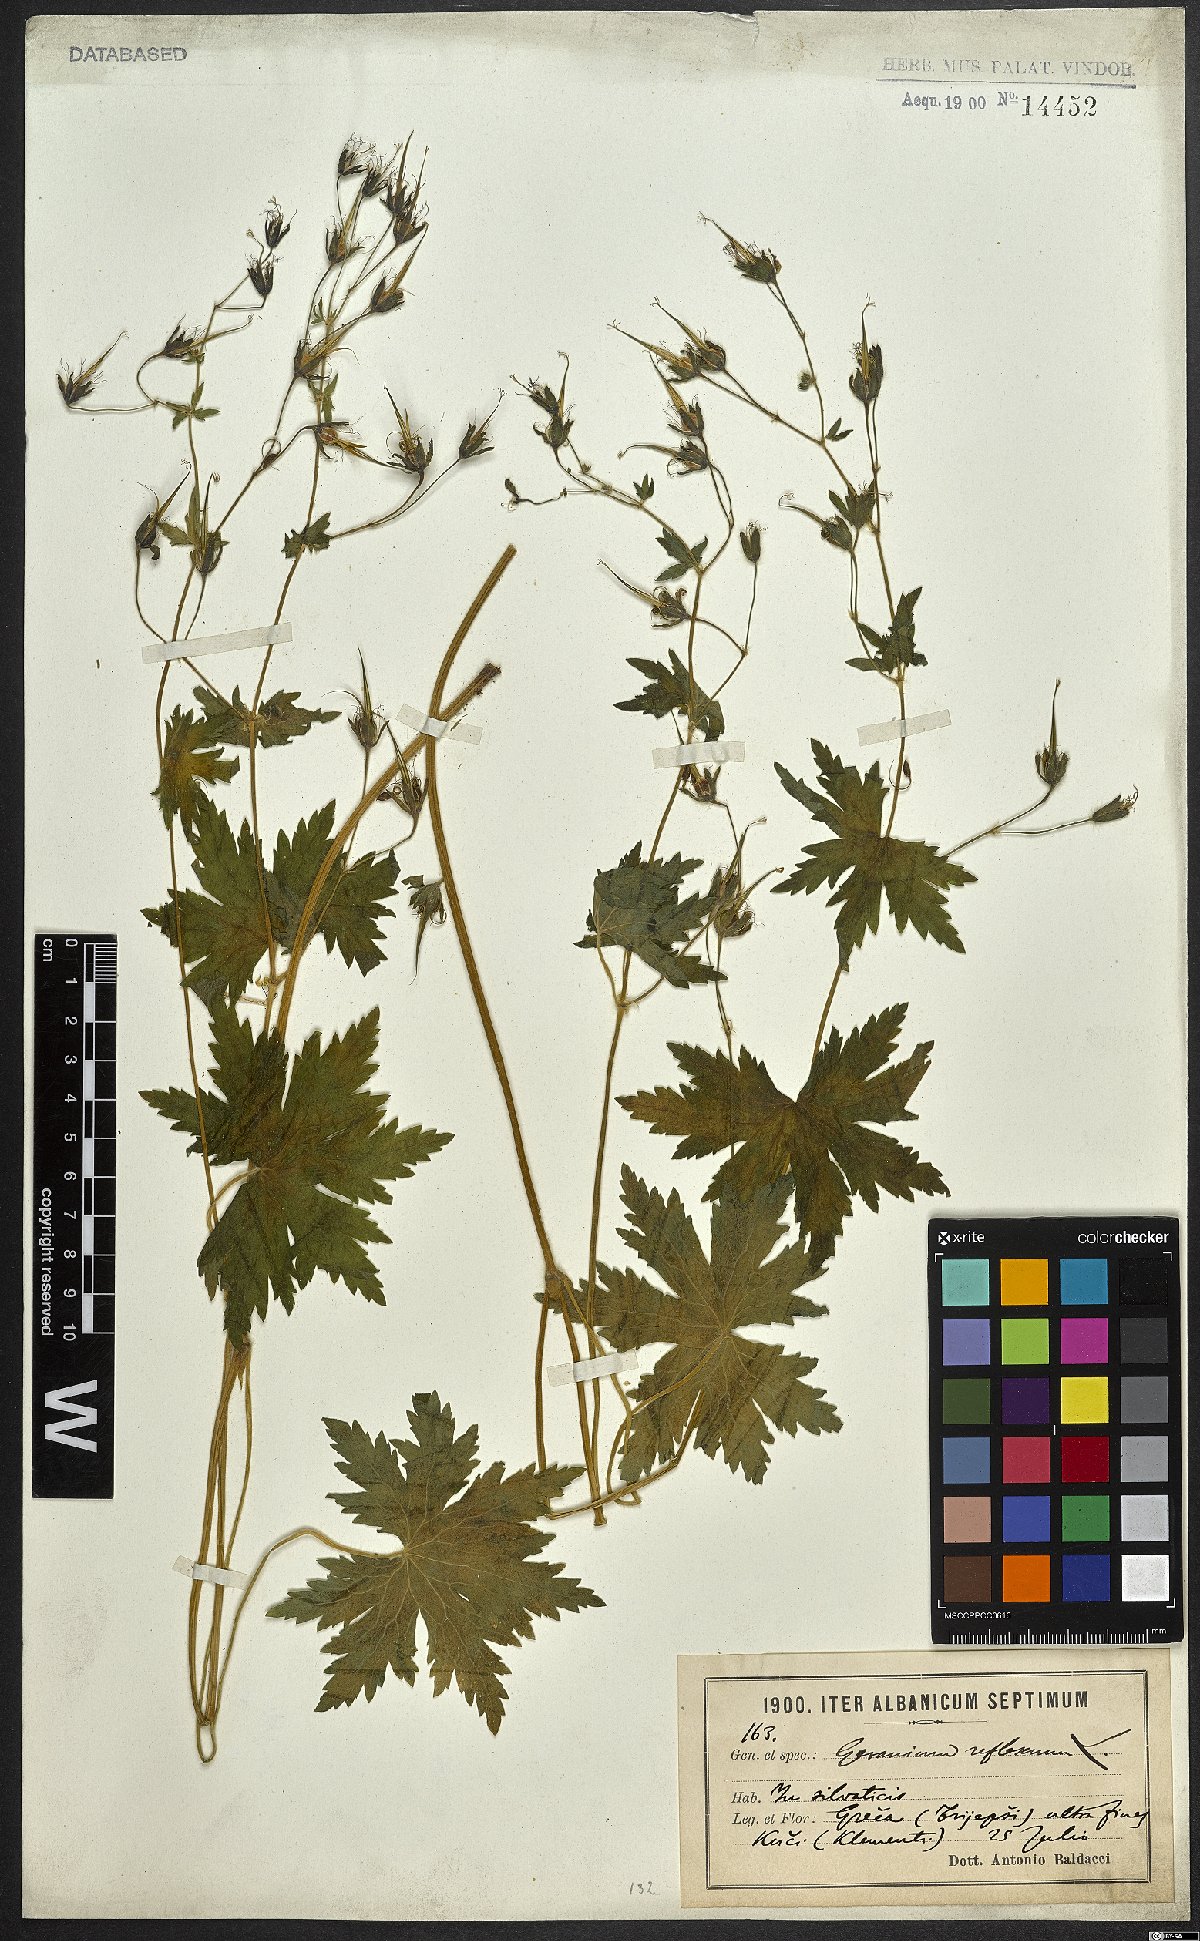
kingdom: Plantae
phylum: Tracheophyta
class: Magnoliopsida
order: Geraniales
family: Geraniaceae
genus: Geranium
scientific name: Geranium reflexum
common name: Reflexed crane's-bill
